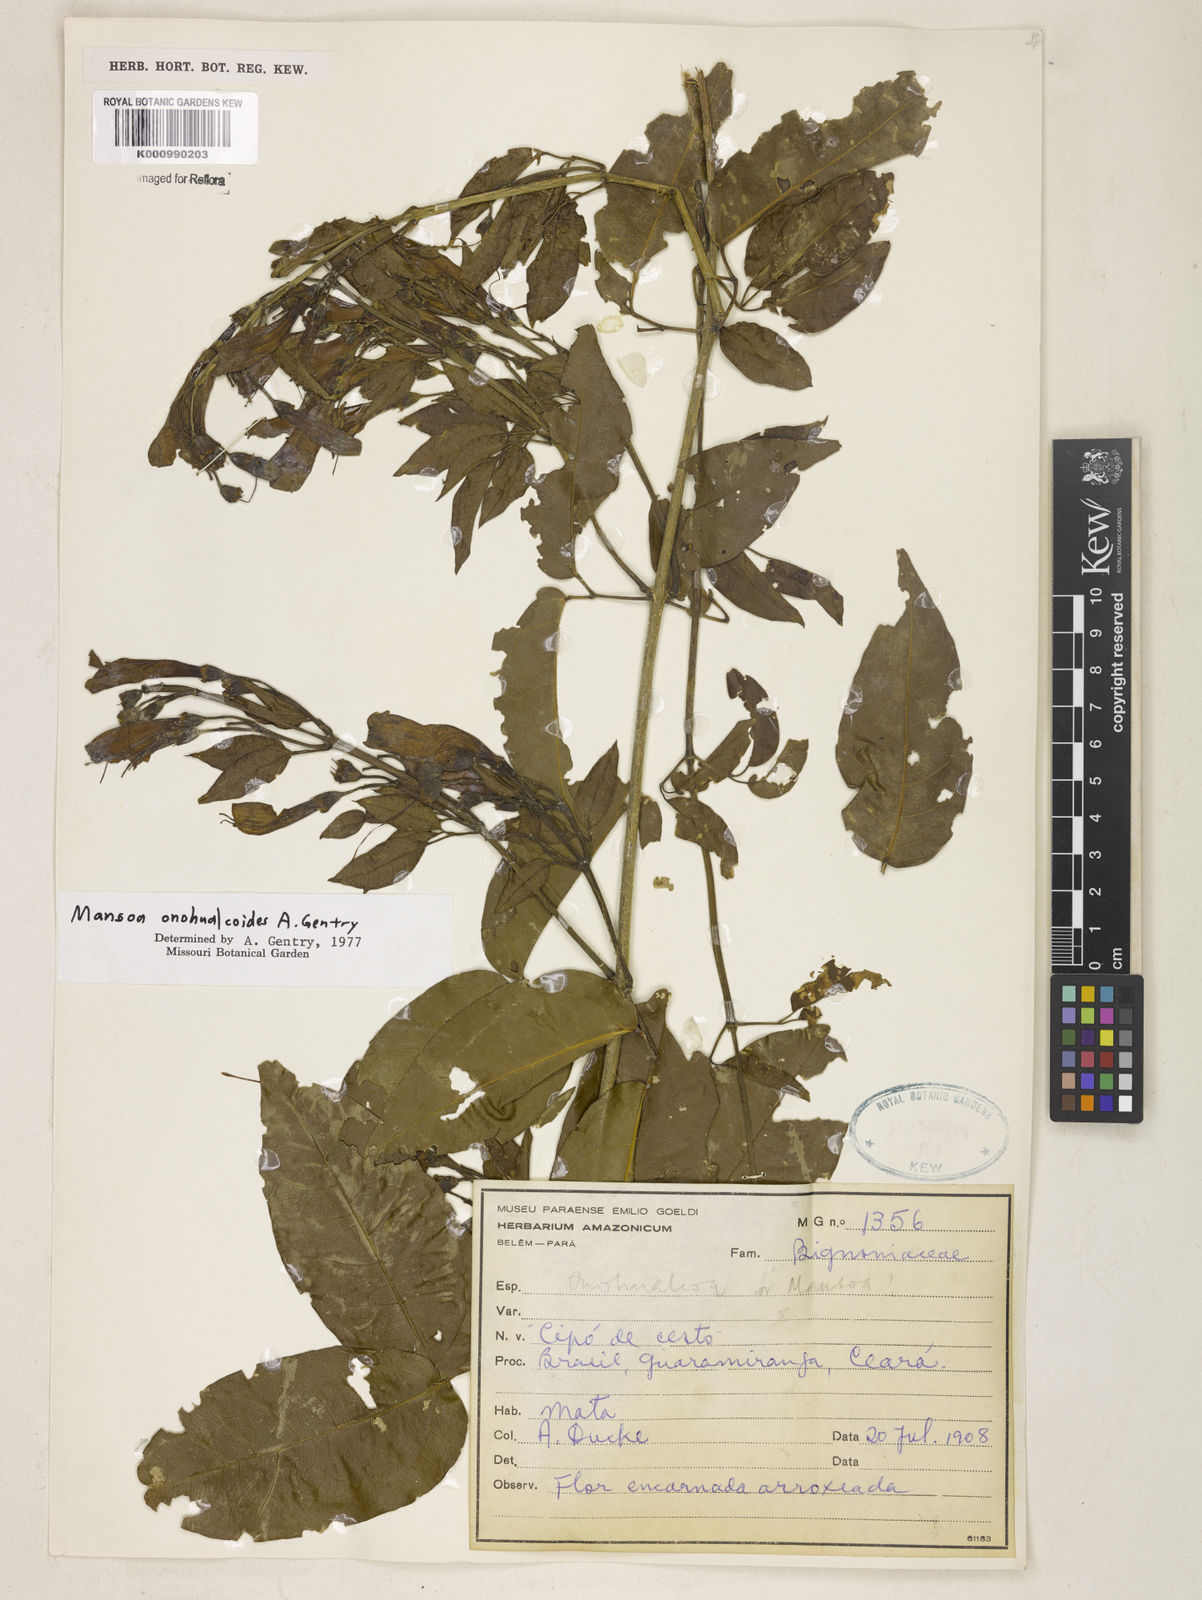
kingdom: Plantae
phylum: Tracheophyta
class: Magnoliopsida
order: Lamiales
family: Bignoniaceae
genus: Mansoa
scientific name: Mansoa onohualcoides
